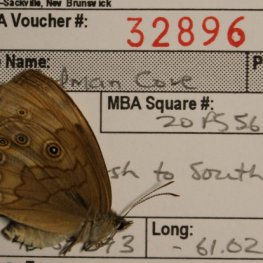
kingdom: Animalia
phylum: Arthropoda
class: Insecta
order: Lepidoptera
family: Nymphalidae
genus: Lethe
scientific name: Lethe eurydice
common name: Eyed Brown
